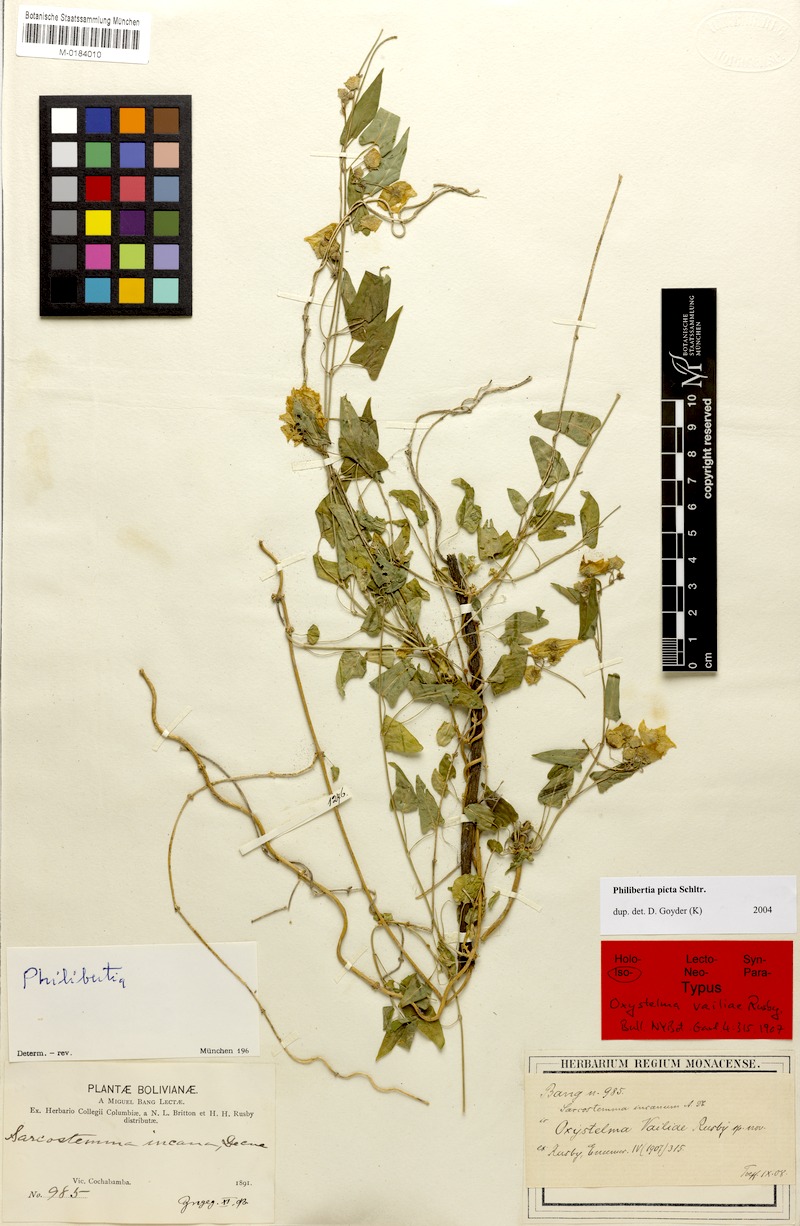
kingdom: Plantae
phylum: Tracheophyta
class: Magnoliopsida
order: Gentianales
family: Apocynaceae
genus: Philibertia
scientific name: Philibertia picta
